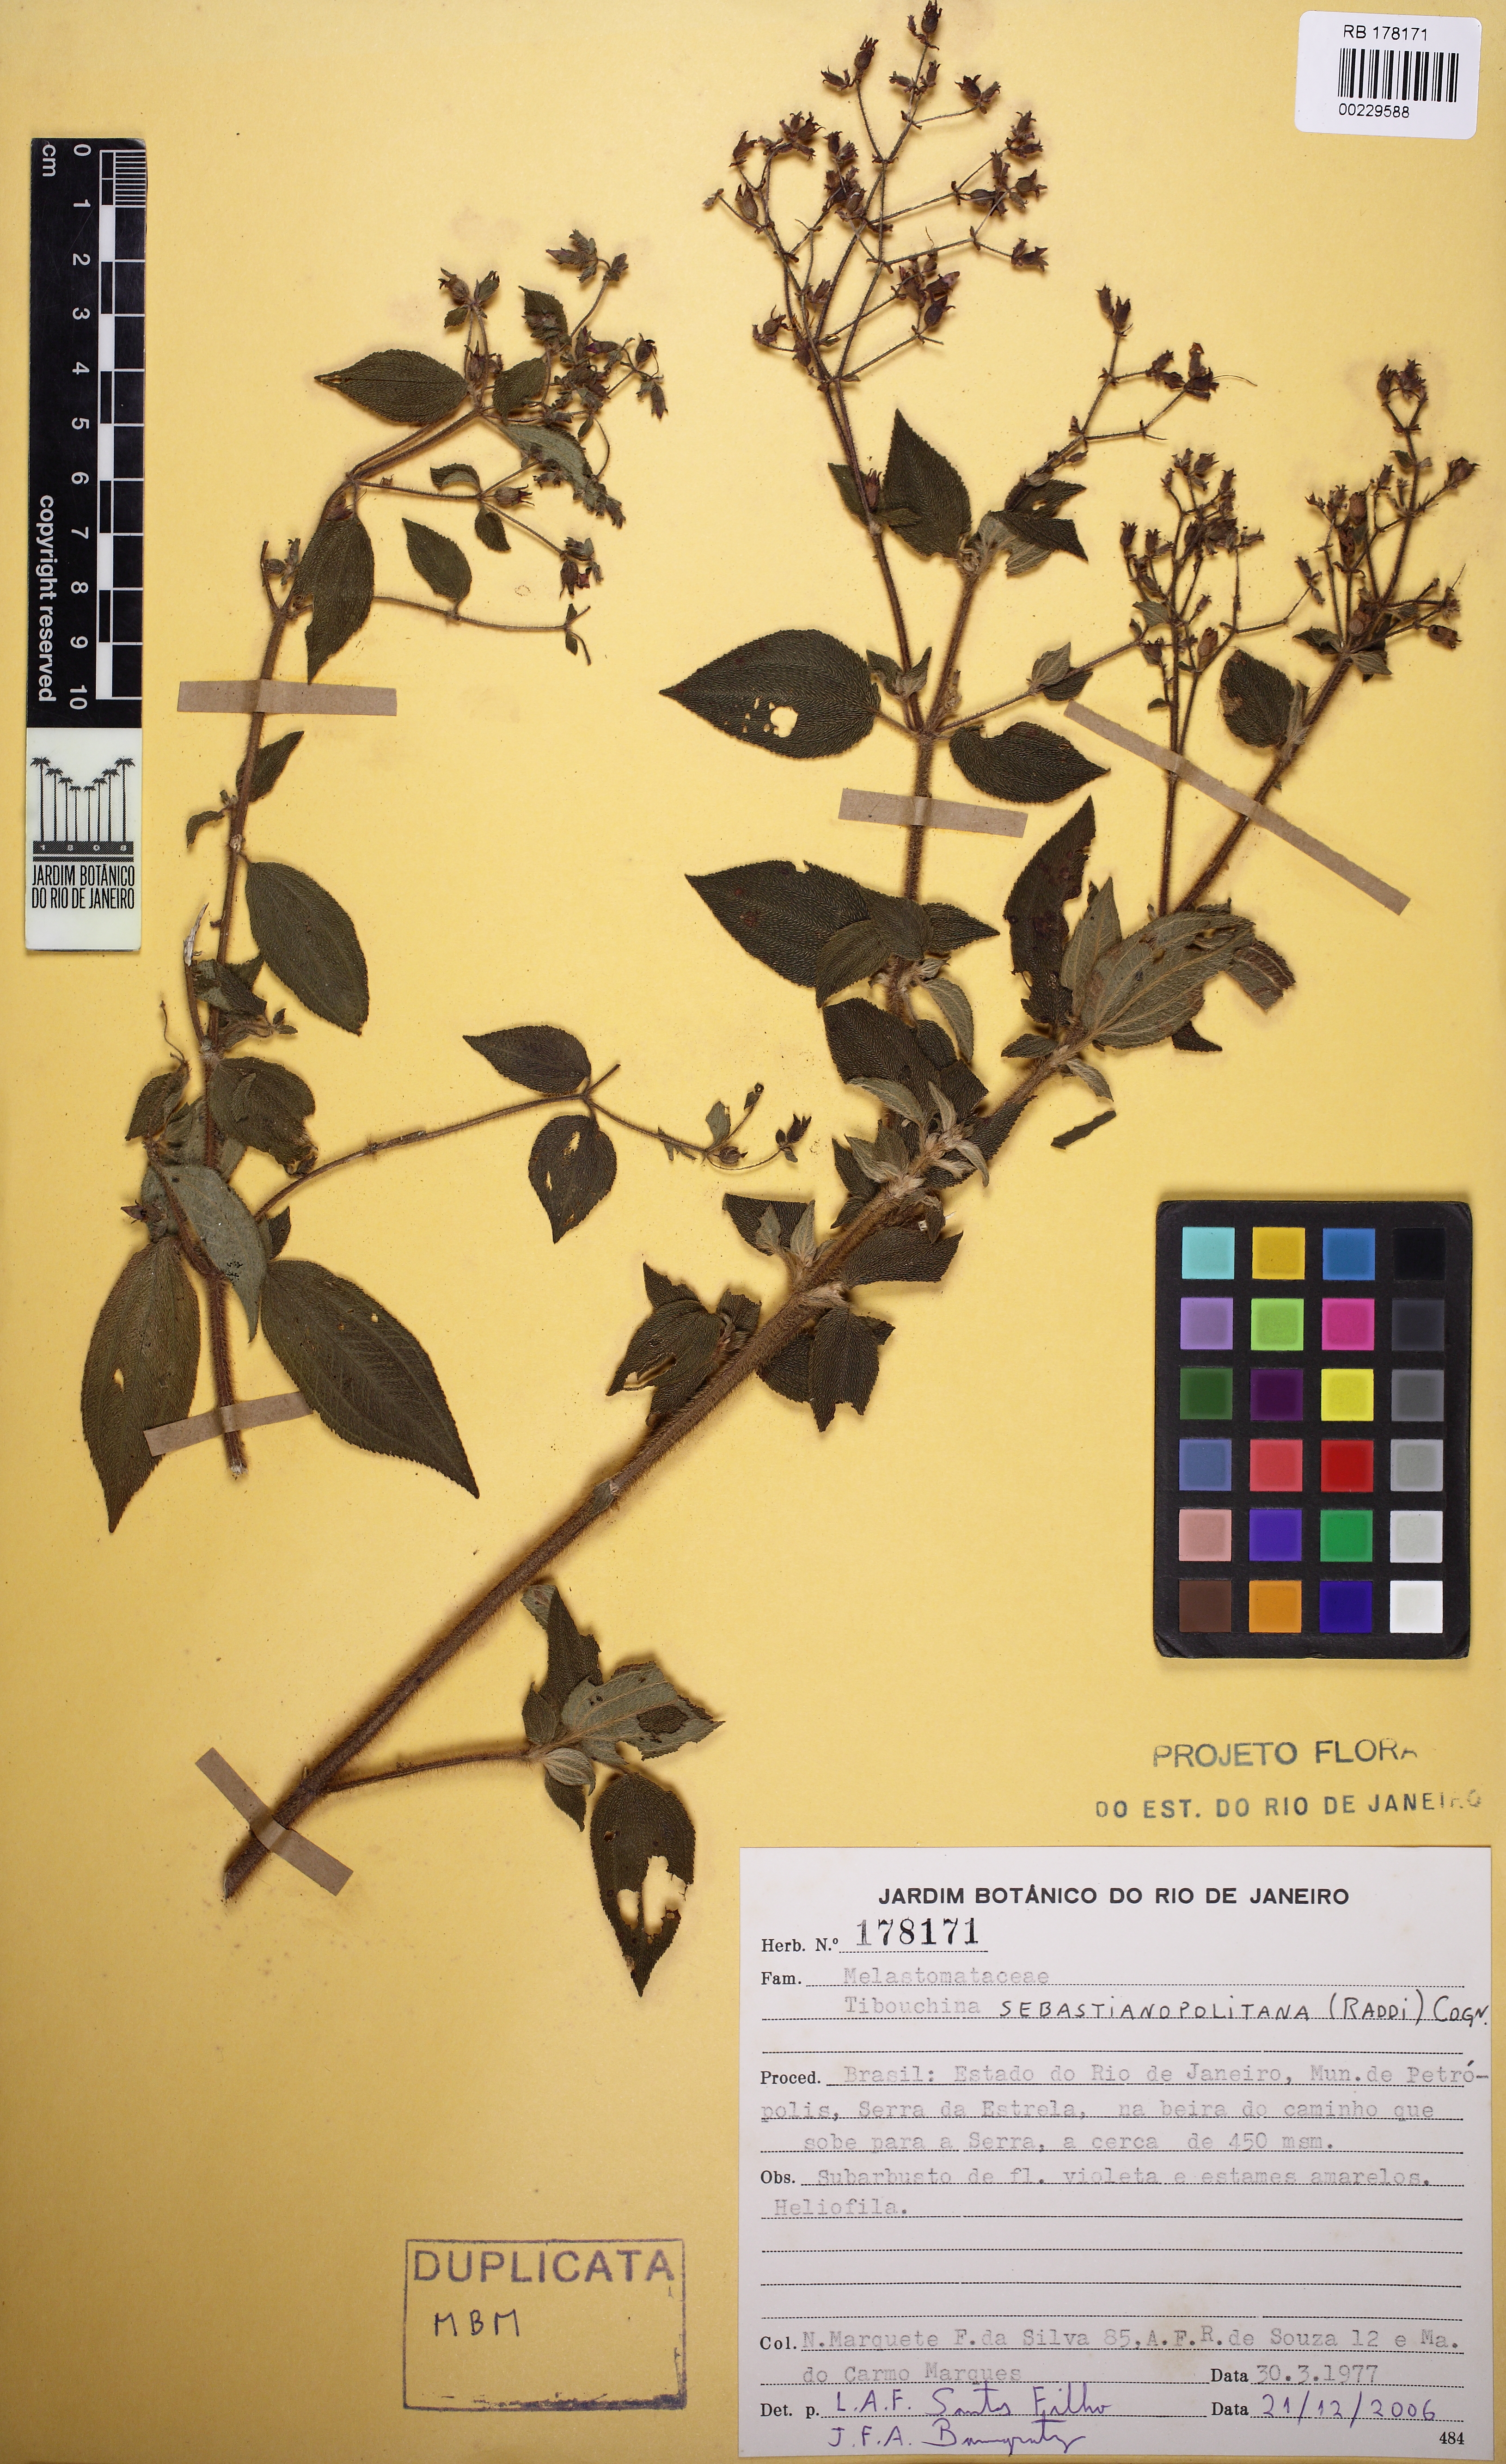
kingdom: Plantae
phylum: Tracheophyta
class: Magnoliopsida
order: Myrtales
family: Melastomataceae
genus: Chaetogastra
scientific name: Chaetogastra sebastianopolitana
